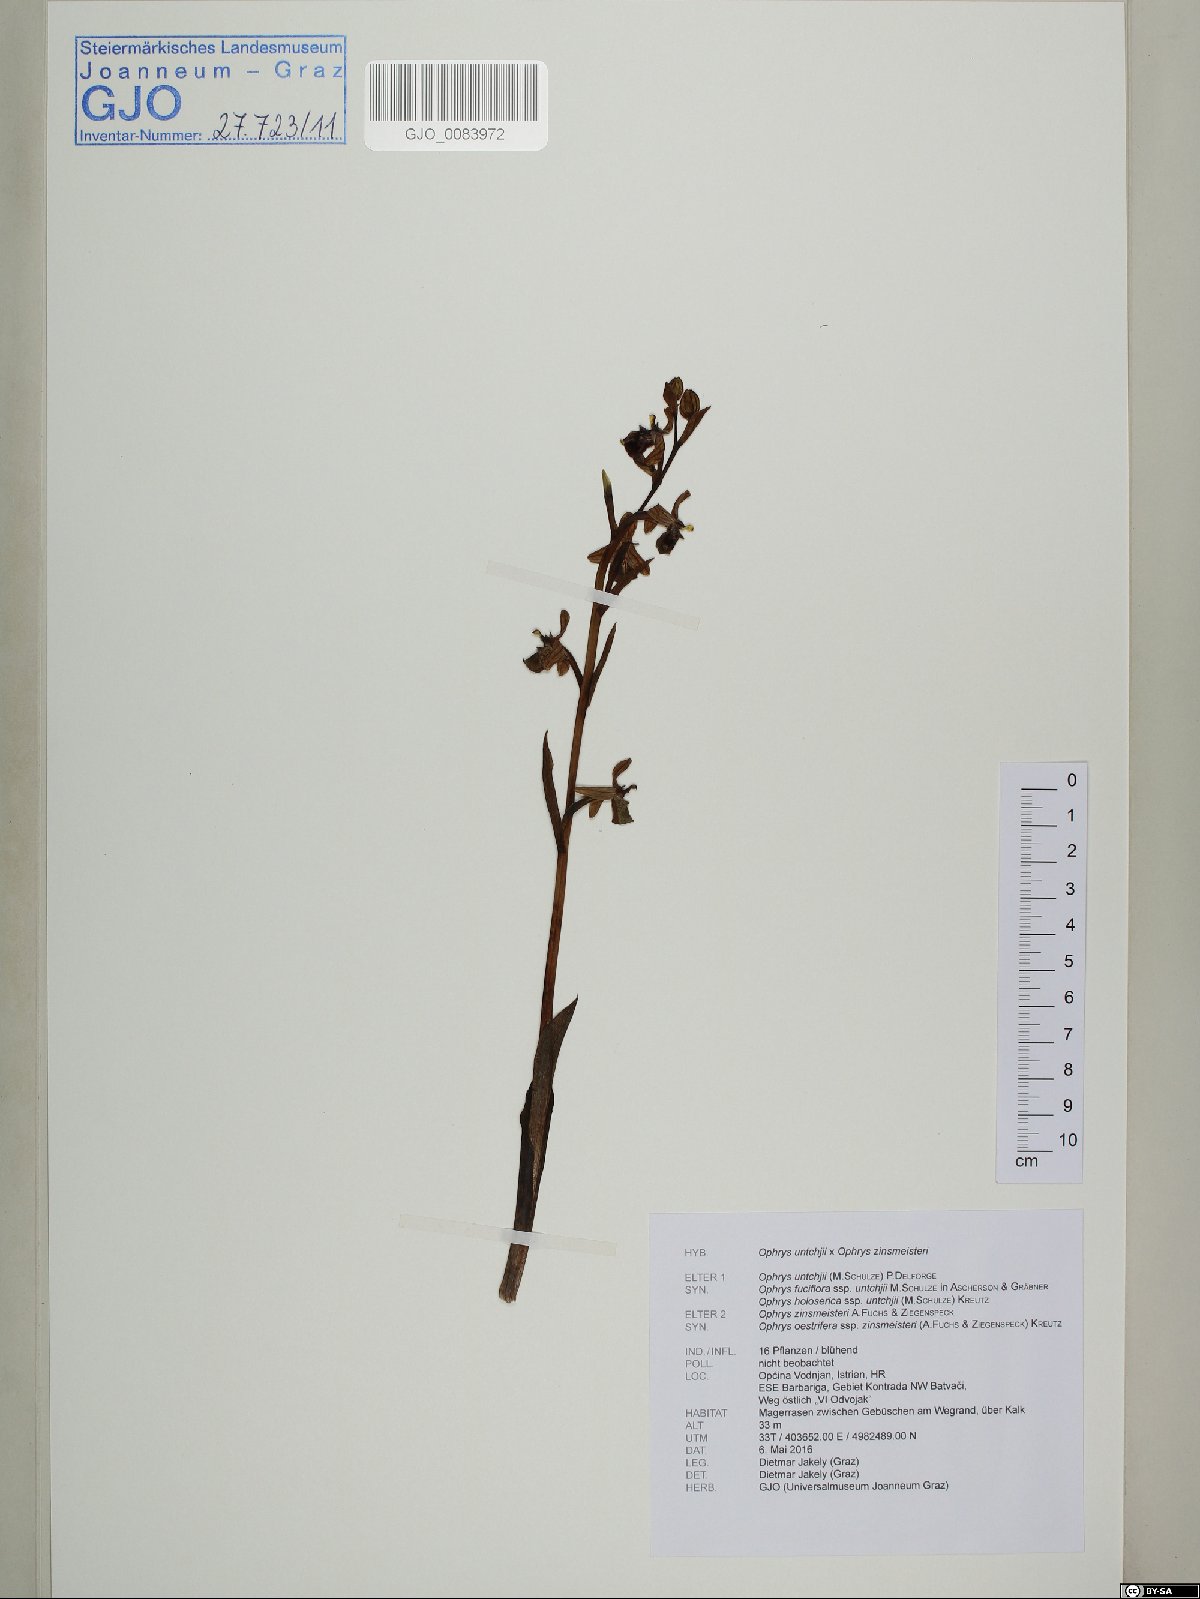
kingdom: Plantae
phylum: Tracheophyta
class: Liliopsida
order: Asparagales
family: Orchidaceae
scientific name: Orchidaceae
